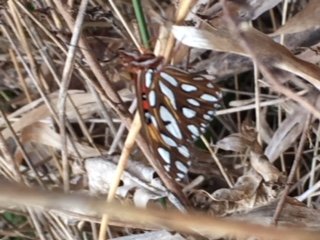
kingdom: Animalia
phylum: Arthropoda
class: Insecta
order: Lepidoptera
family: Nymphalidae
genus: Dione
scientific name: Dione vanillae
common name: Gulf Fritillary
